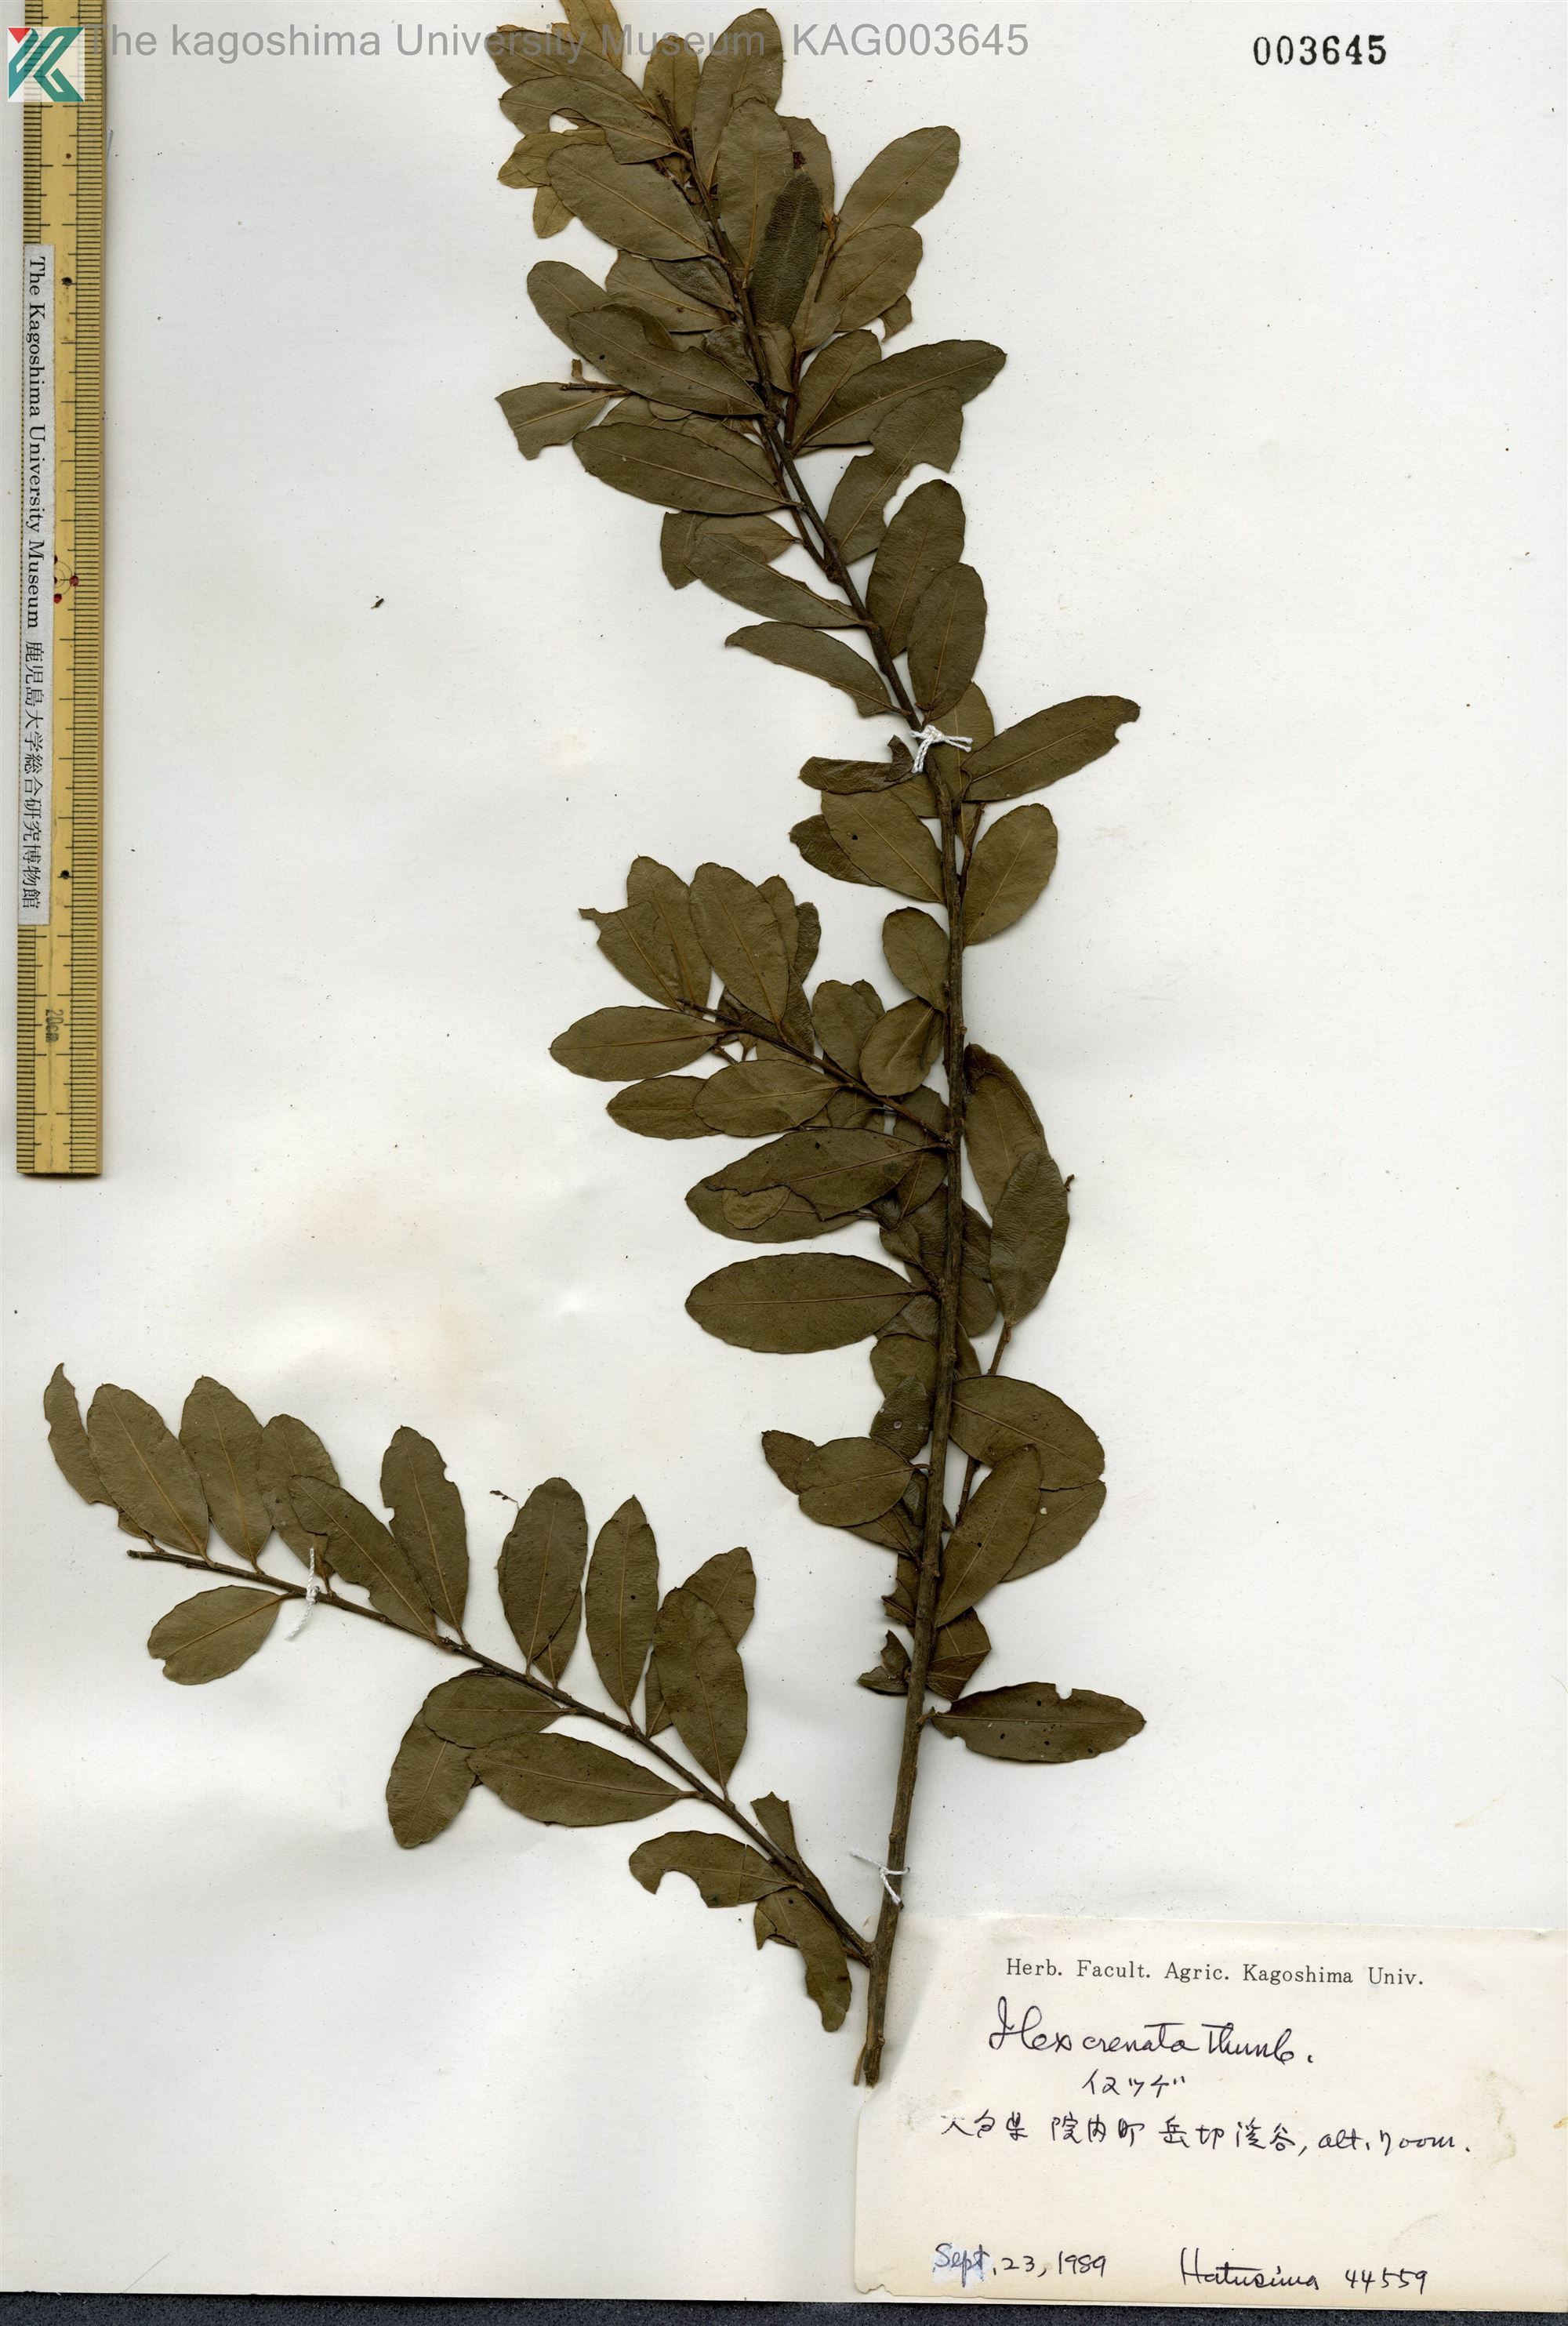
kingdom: Plantae
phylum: Tracheophyta
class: Magnoliopsida
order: Aquifoliales
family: Aquifoliaceae
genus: Ilex
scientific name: Ilex crenata
